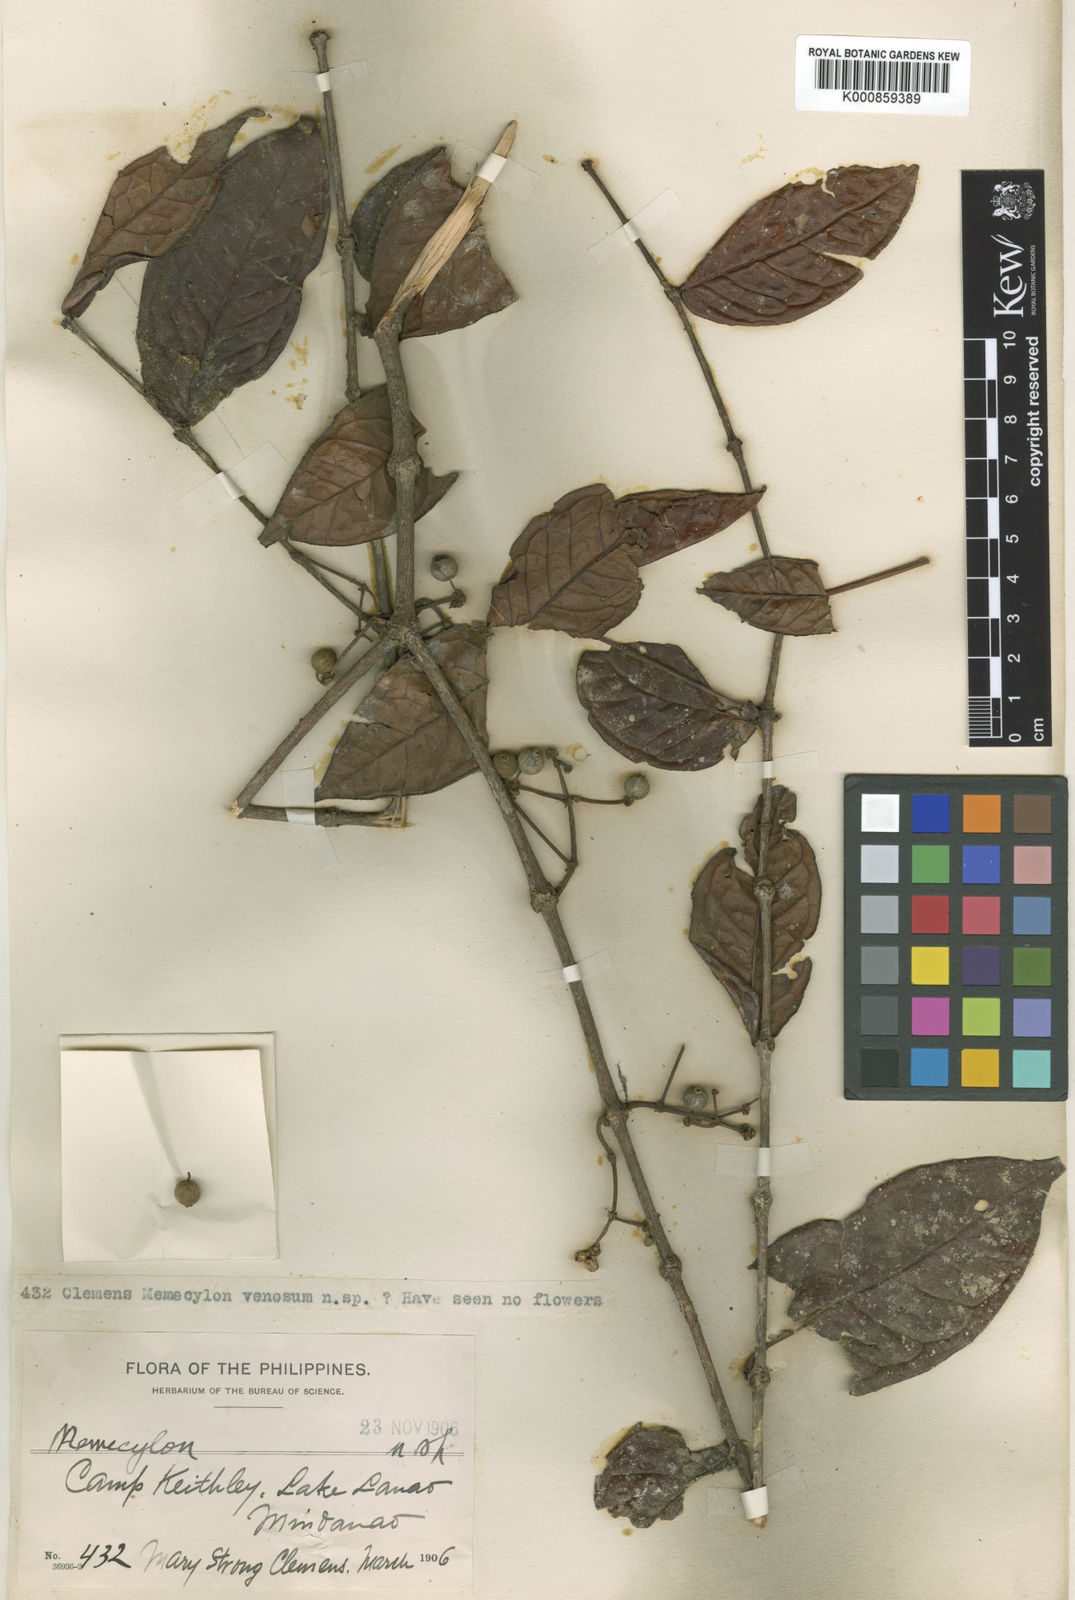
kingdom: Plantae
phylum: Tracheophyta
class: Magnoliopsida
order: Myrtales
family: Melastomataceae
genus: Memecylon
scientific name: Memecylon venosum
